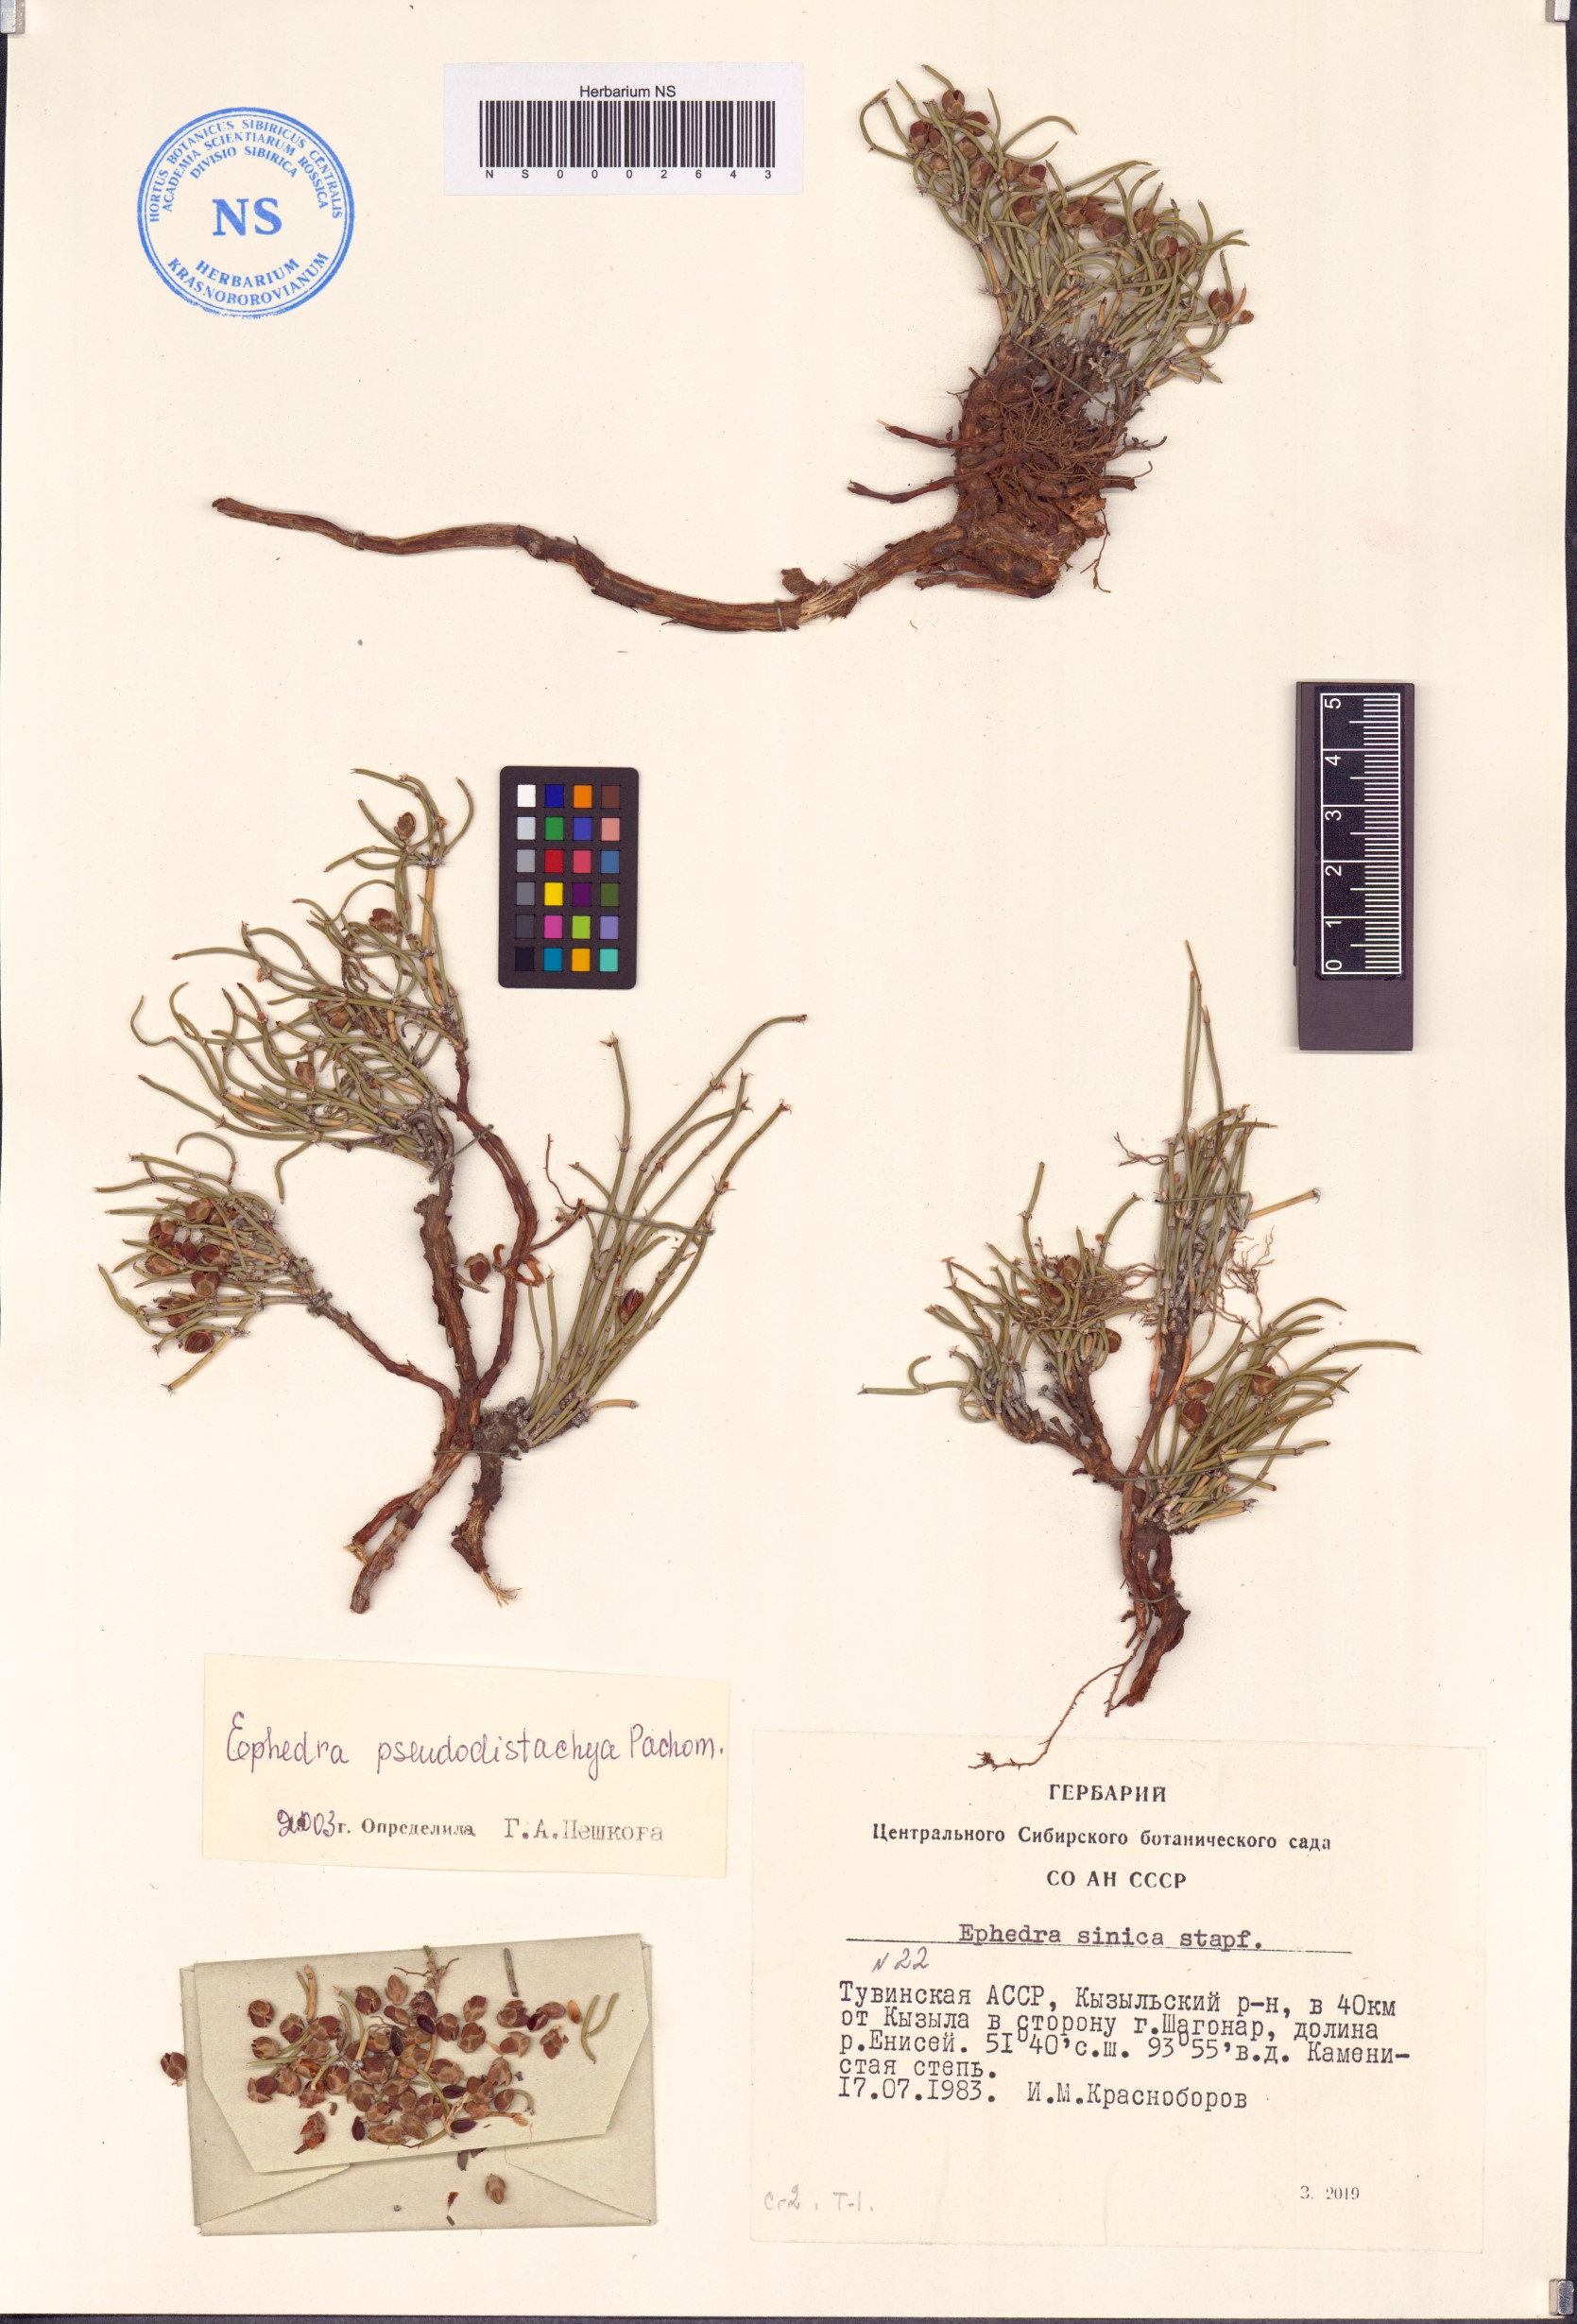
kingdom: Plantae
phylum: Tracheophyta
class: Gnetopsida
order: Ephedrales
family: Ephedraceae
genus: Ephedra
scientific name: Ephedra pseudodistachya
